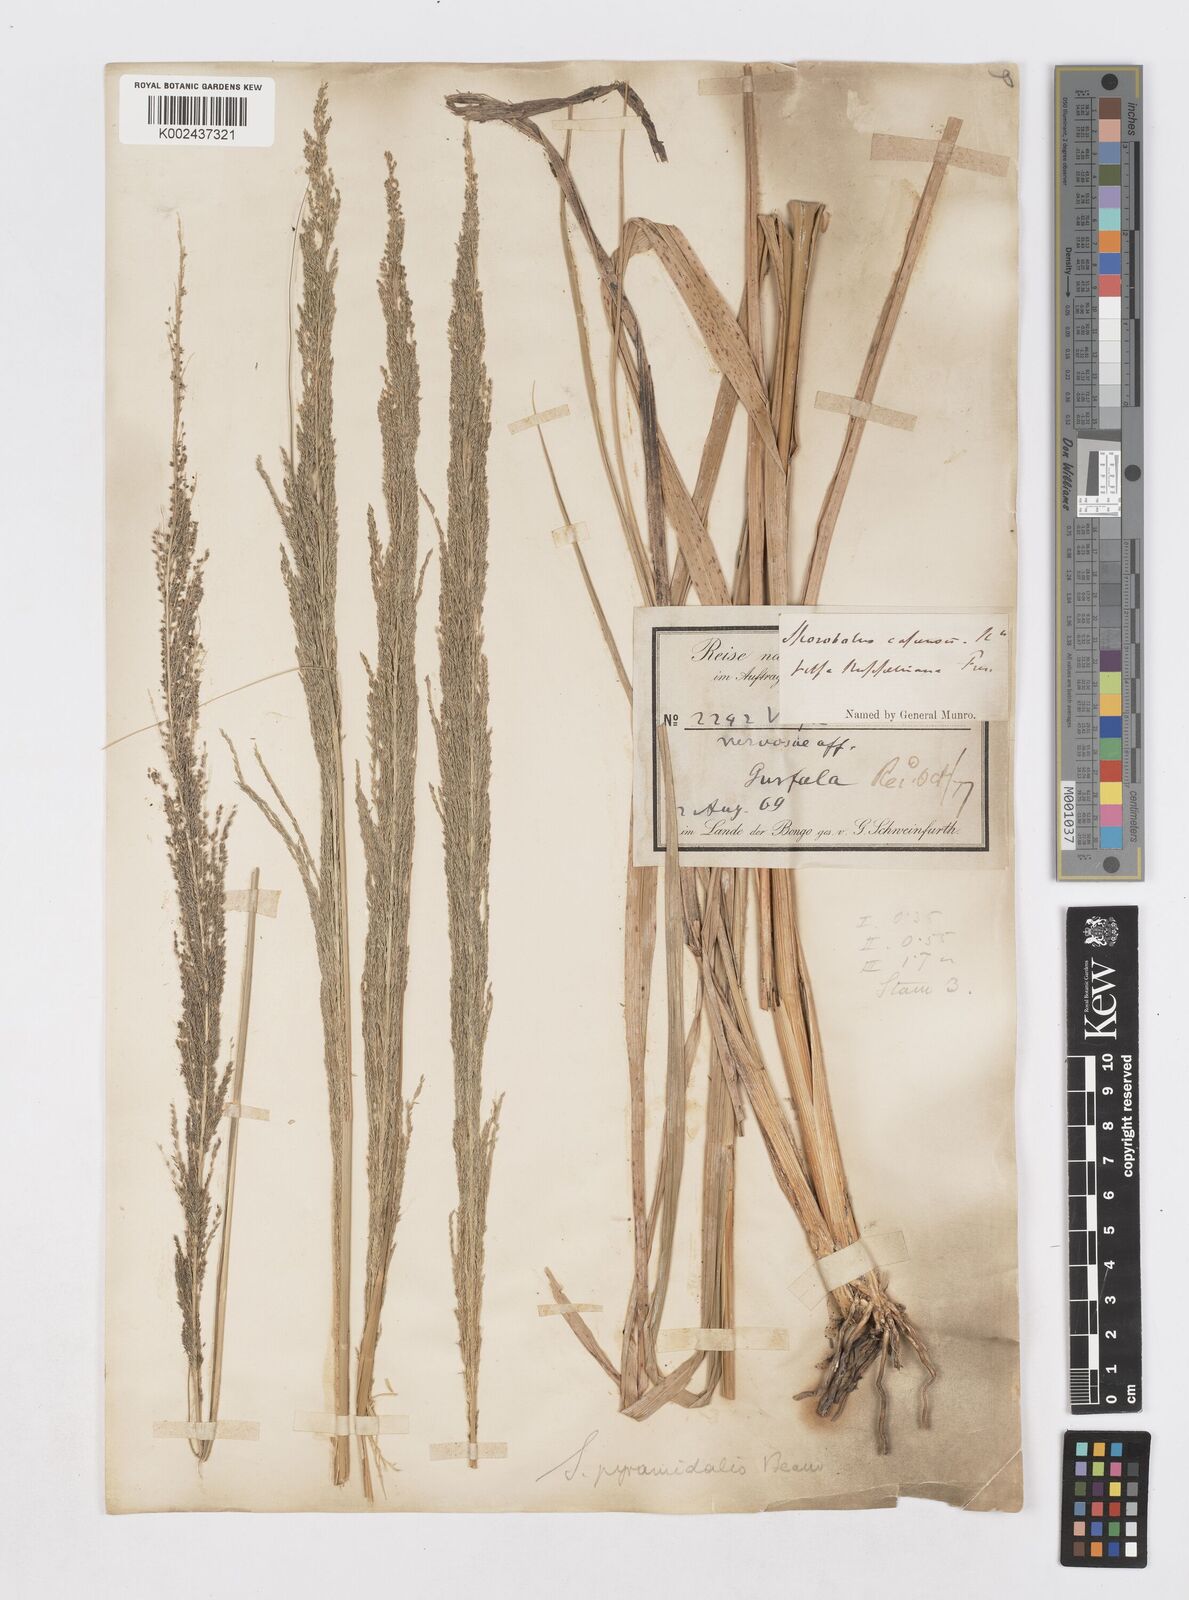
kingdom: Plantae
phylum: Tracheophyta
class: Liliopsida
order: Poales
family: Poaceae
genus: Sporobolus
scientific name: Sporobolus pyramidalis
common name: West indian dropseed
